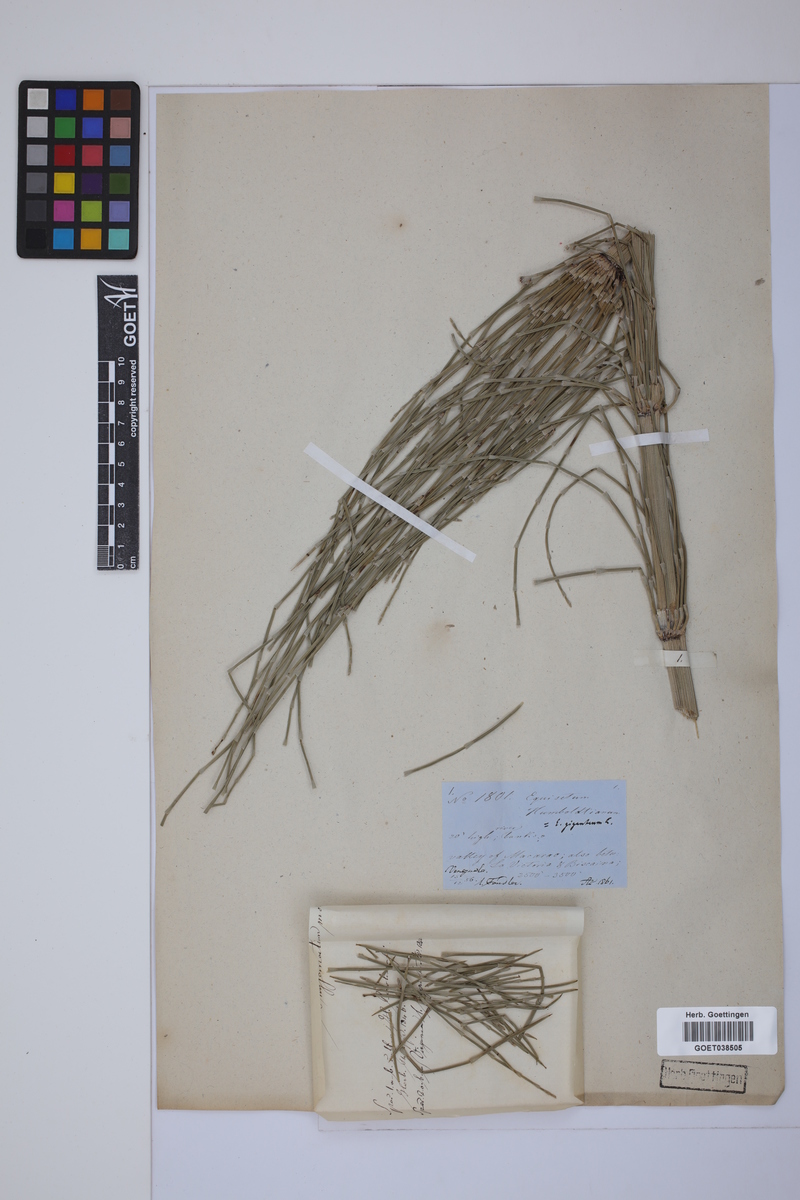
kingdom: Plantae
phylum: Tracheophyta
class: Polypodiopsida
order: Equisetales
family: Equisetaceae
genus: Equisetum
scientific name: Equisetum giganteum
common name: Giant horsetail
